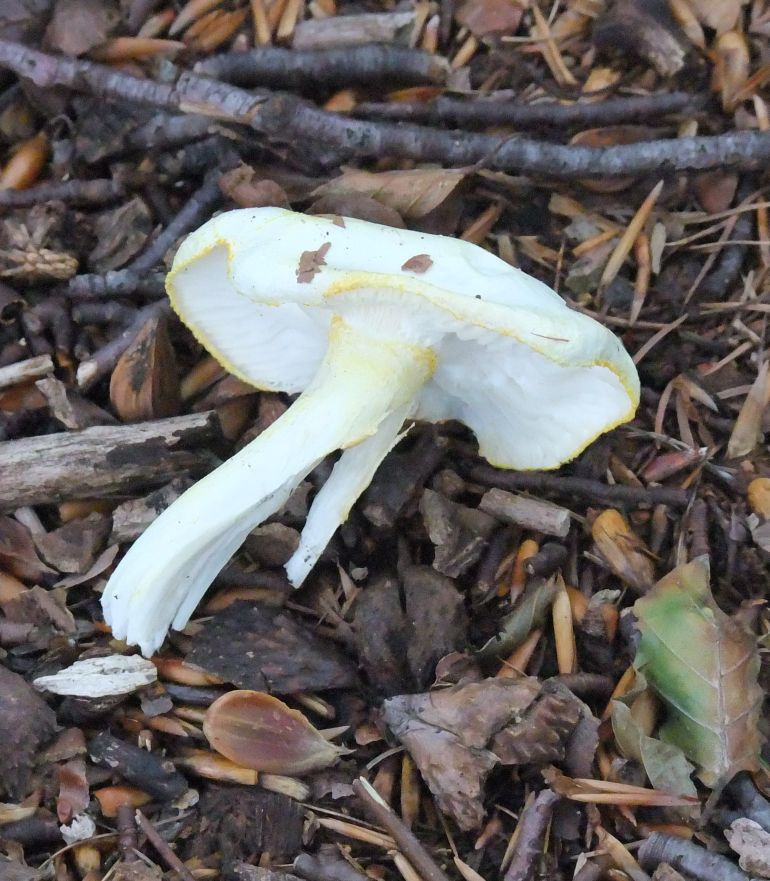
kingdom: Fungi
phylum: Basidiomycota
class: Agaricomycetes
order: Agaricales
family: Hygrophoraceae
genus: Hygrophorus
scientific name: Hygrophorus discoxanthus
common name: ildelugtende sneglehat
